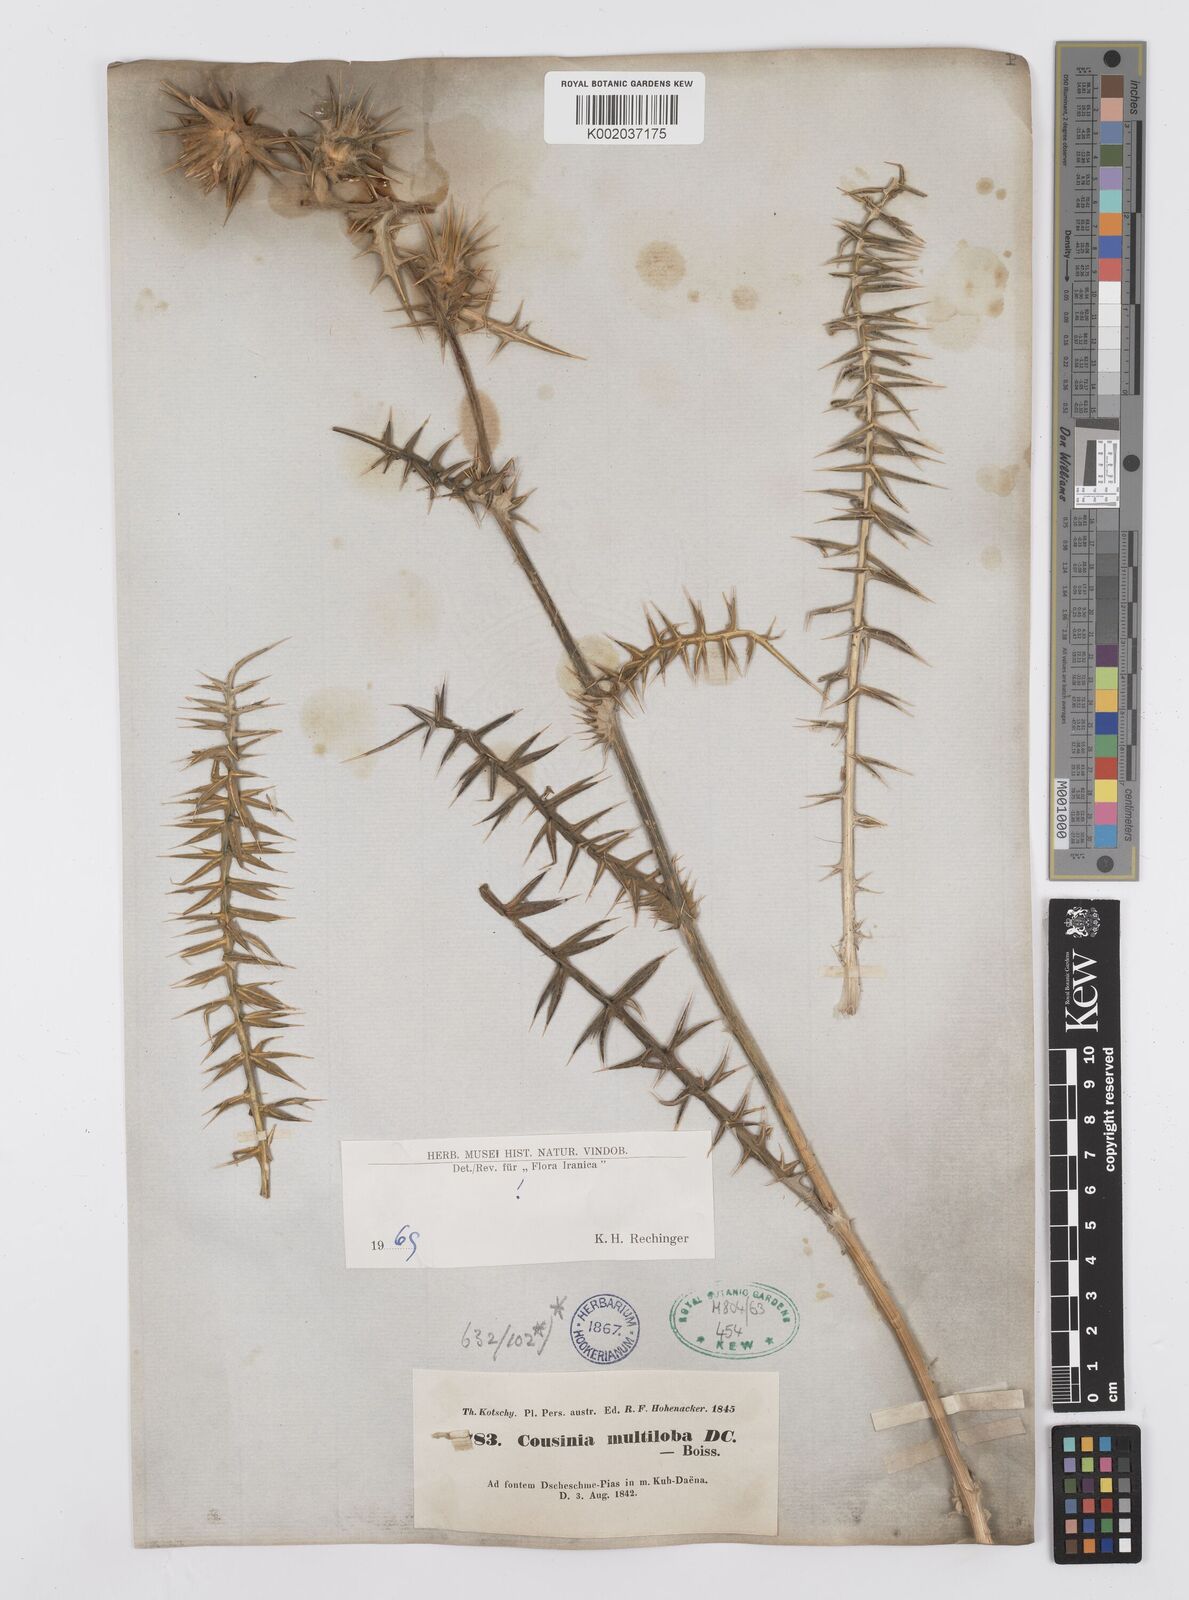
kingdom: Plantae
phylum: Tracheophyta
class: Magnoliopsida
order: Asterales
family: Asteraceae
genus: Cousinia
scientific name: Cousinia multiloba
